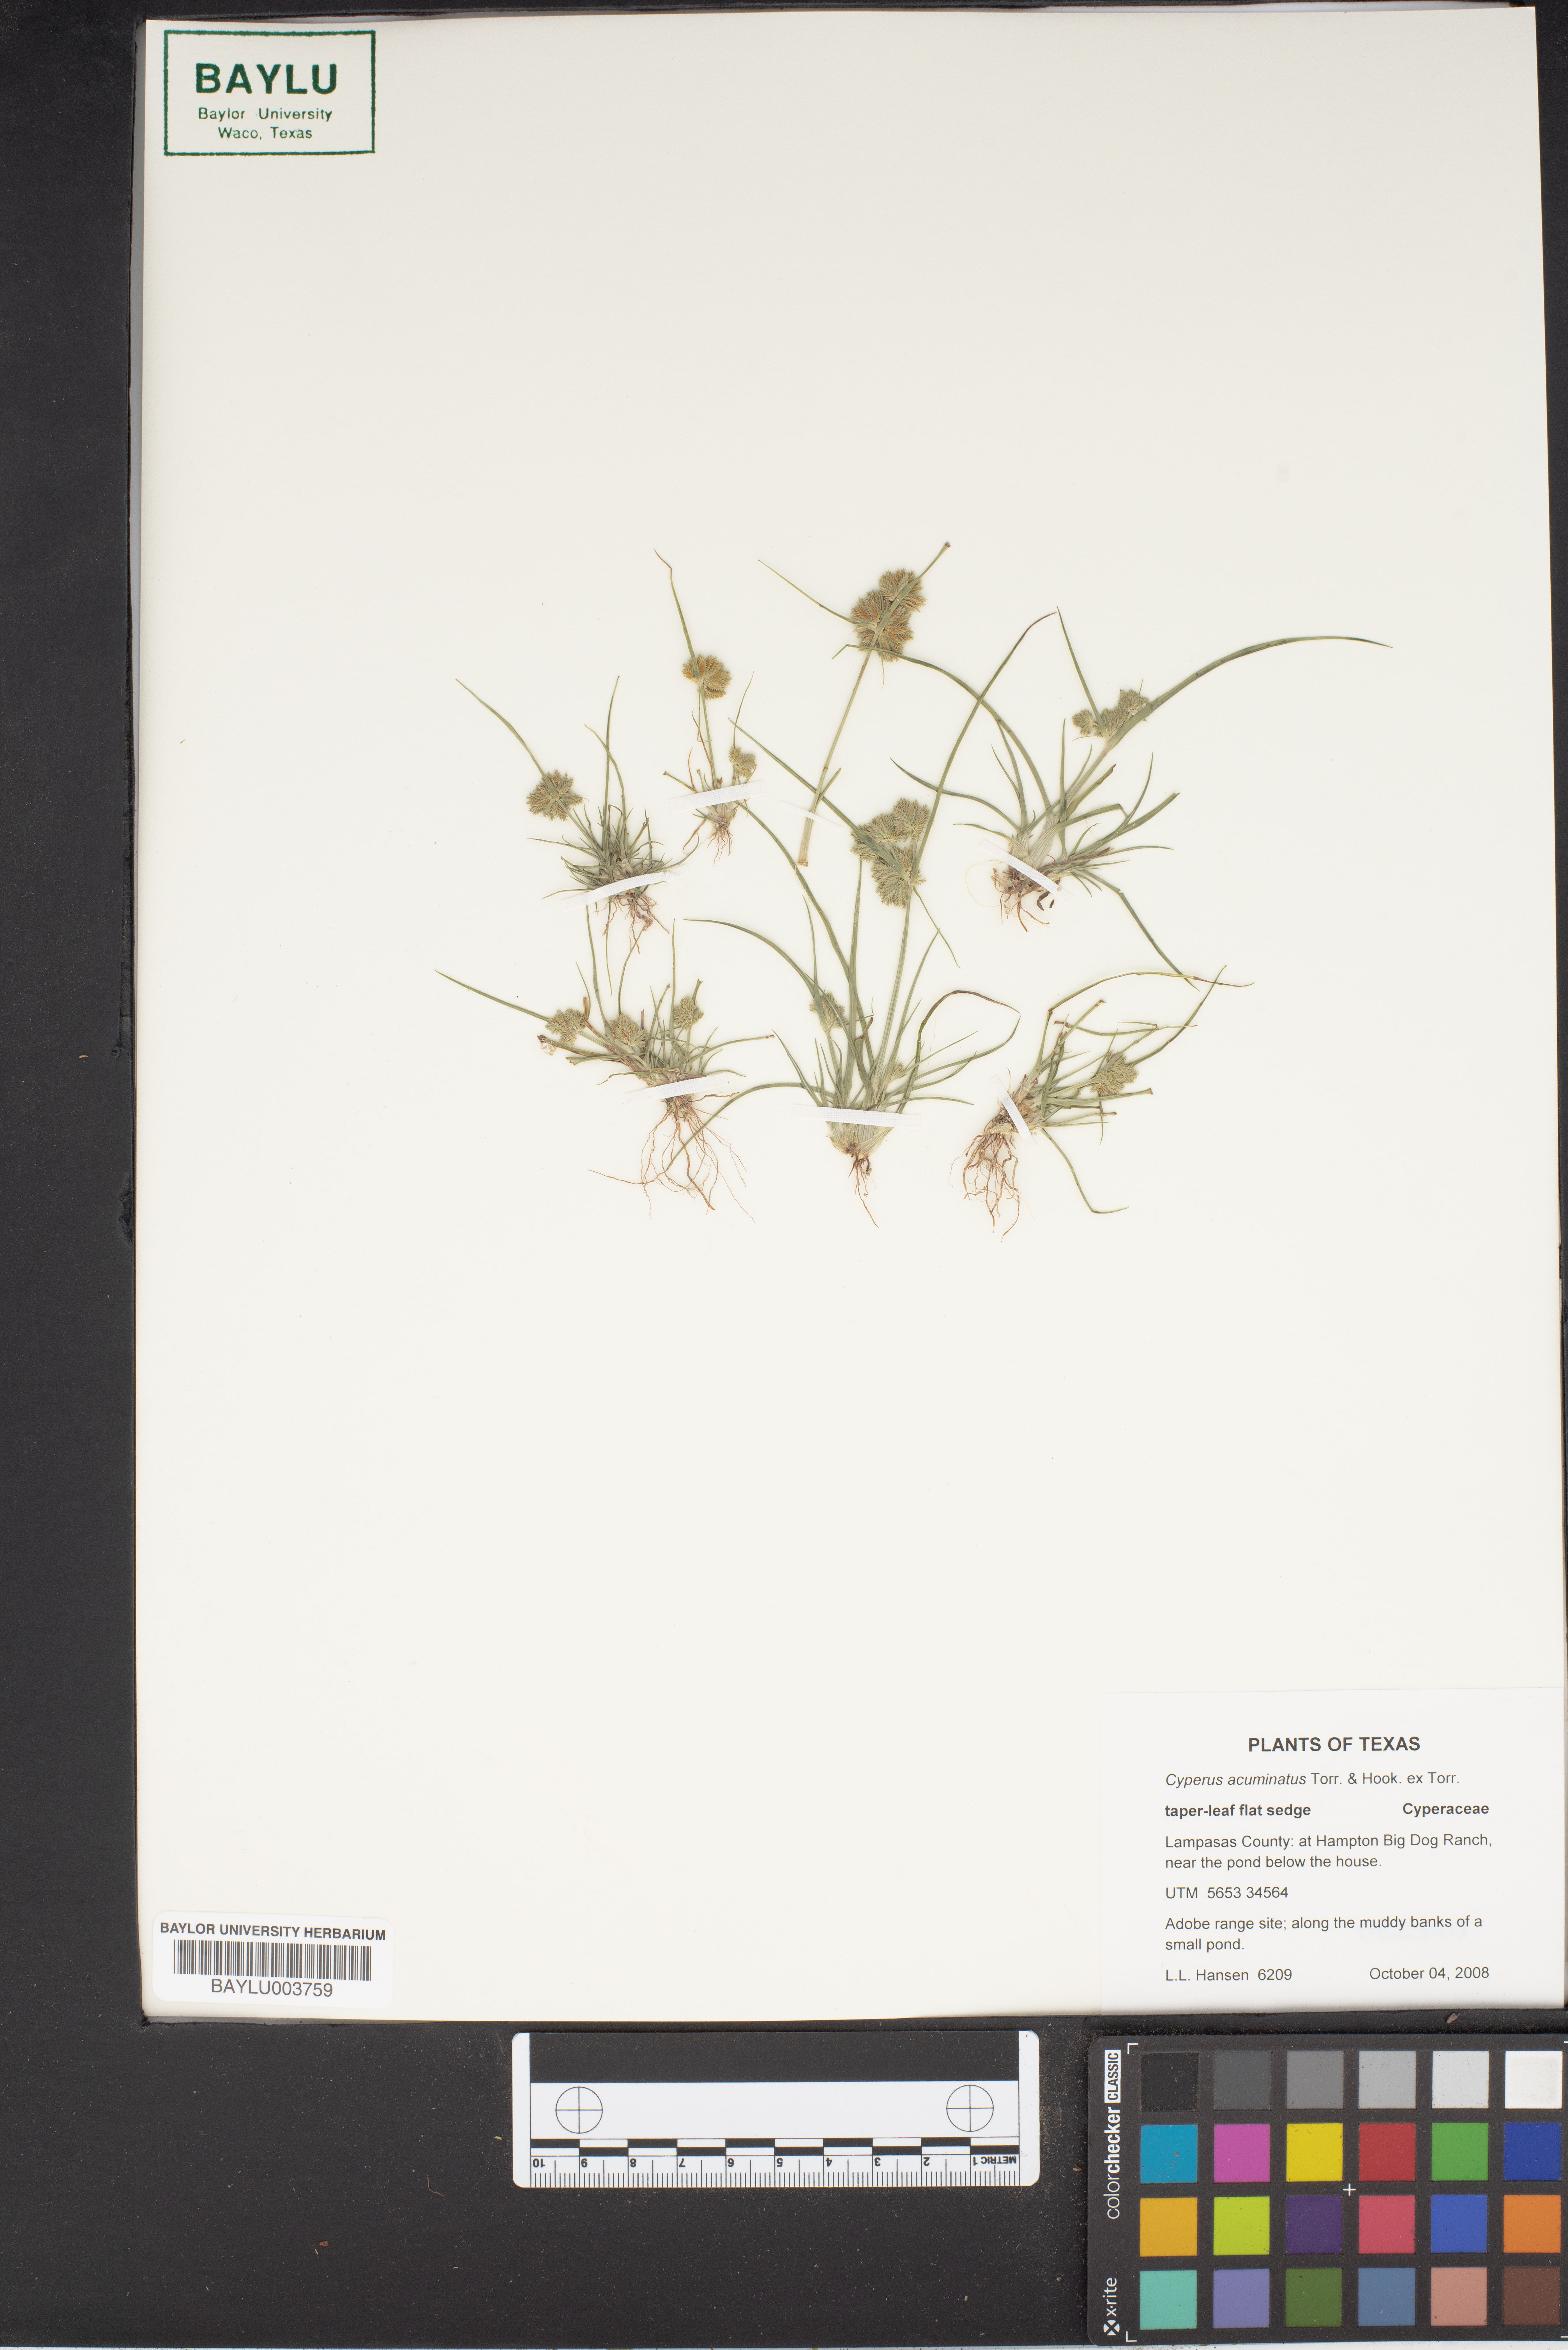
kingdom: Plantae
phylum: Tracheophyta
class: Liliopsida
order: Poales
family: Cyperaceae
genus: Cyperus
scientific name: Cyperus acuminatus
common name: Short-pointed cyperus
